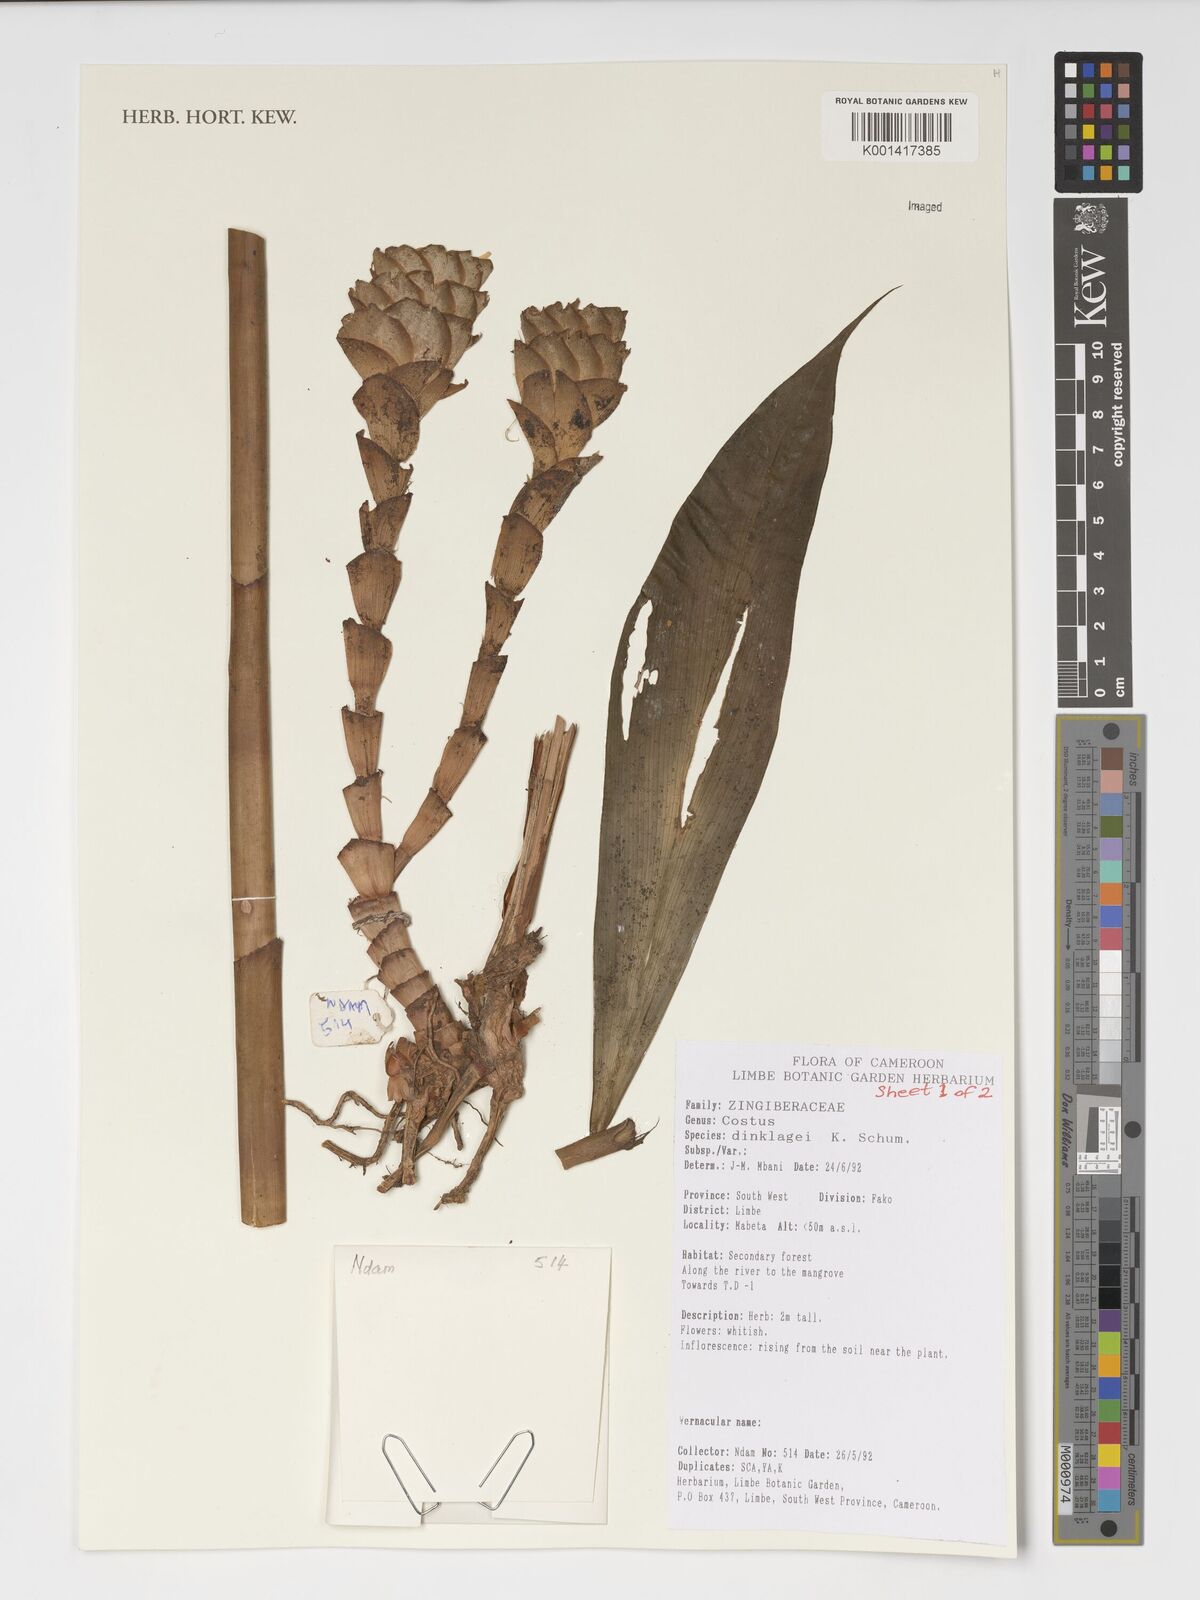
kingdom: Plantae
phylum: Tracheophyta
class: Liliopsida
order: Zingiberales
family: Costaceae
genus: Costus
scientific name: Costus dinklagei
